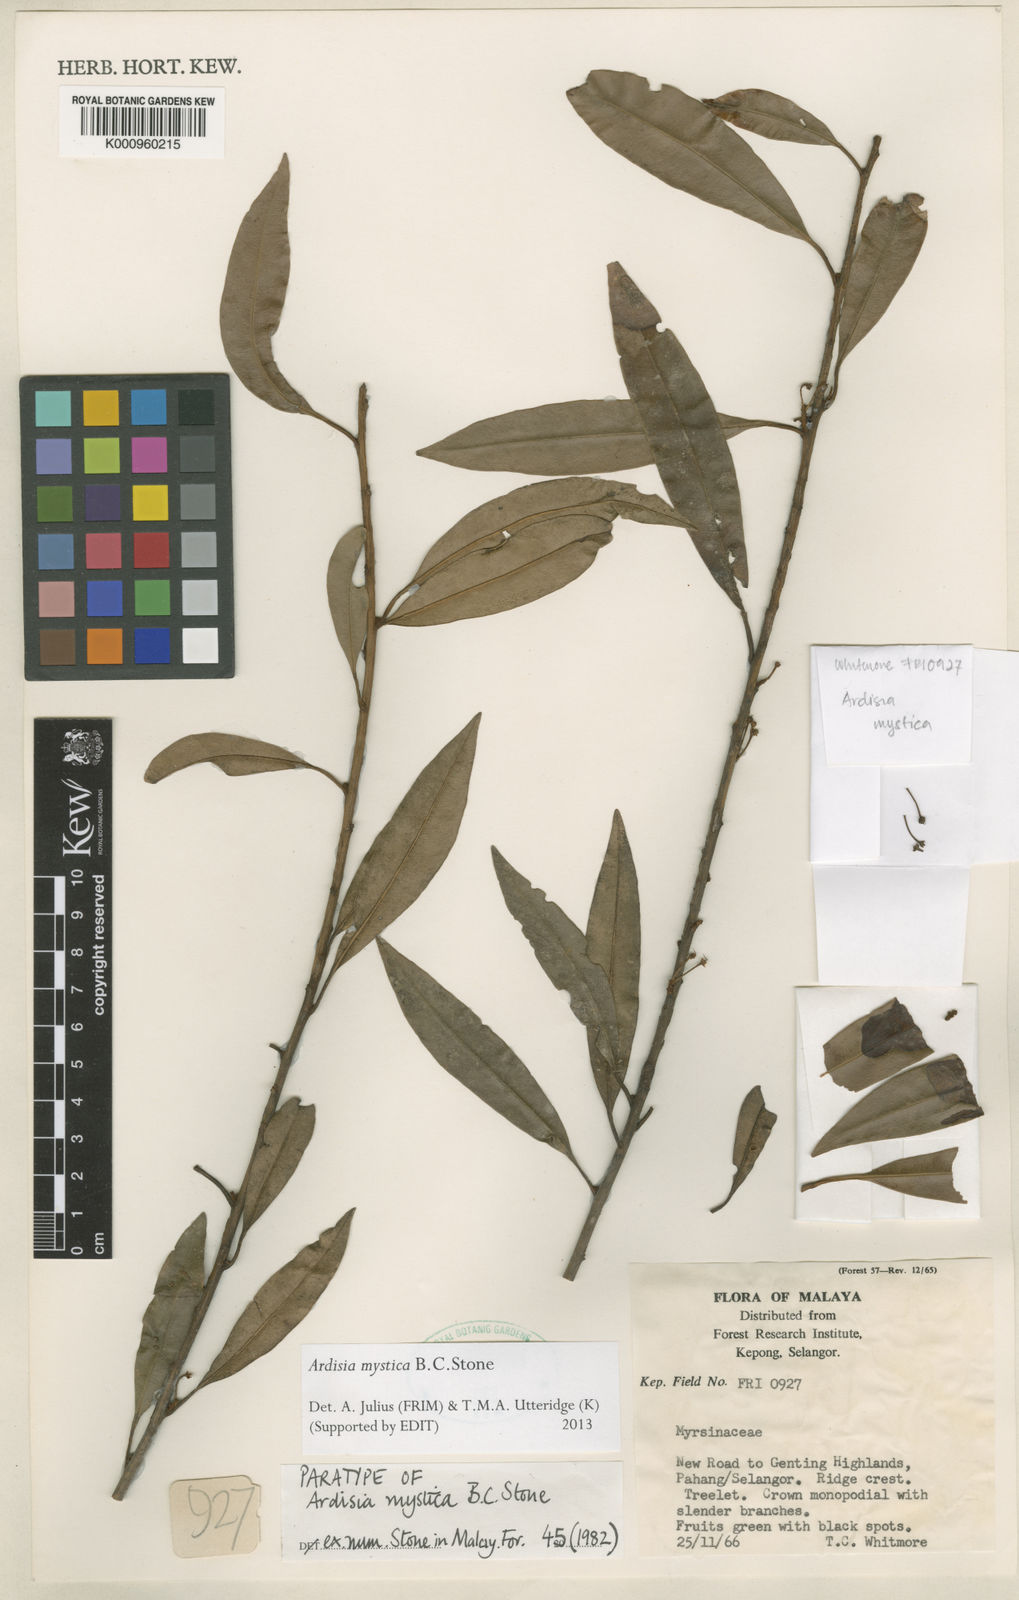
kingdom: Plantae
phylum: Tracheophyta
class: Magnoliopsida
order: Ericales
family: Primulaceae
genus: Ardisia
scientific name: Ardisia chrysophyllifolia
